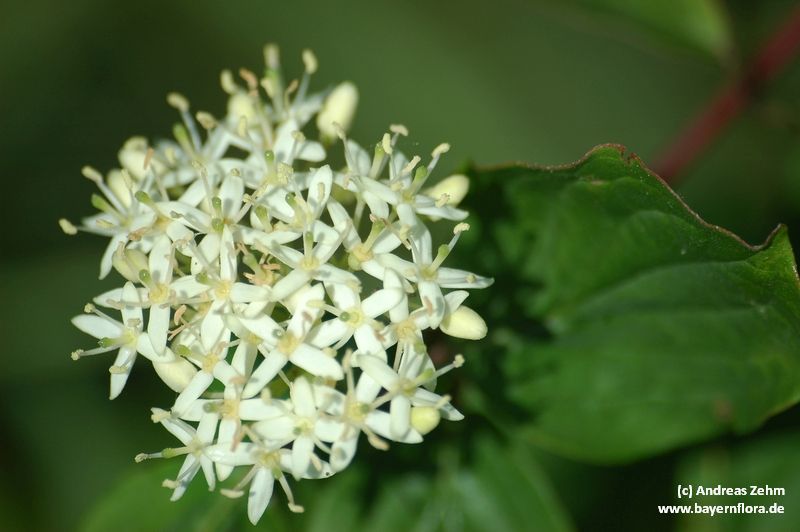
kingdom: Plantae
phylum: Tracheophyta
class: Magnoliopsida
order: Cornales
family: Cornaceae
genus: Cornus
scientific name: Cornus sanguinea
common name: Dogwood
